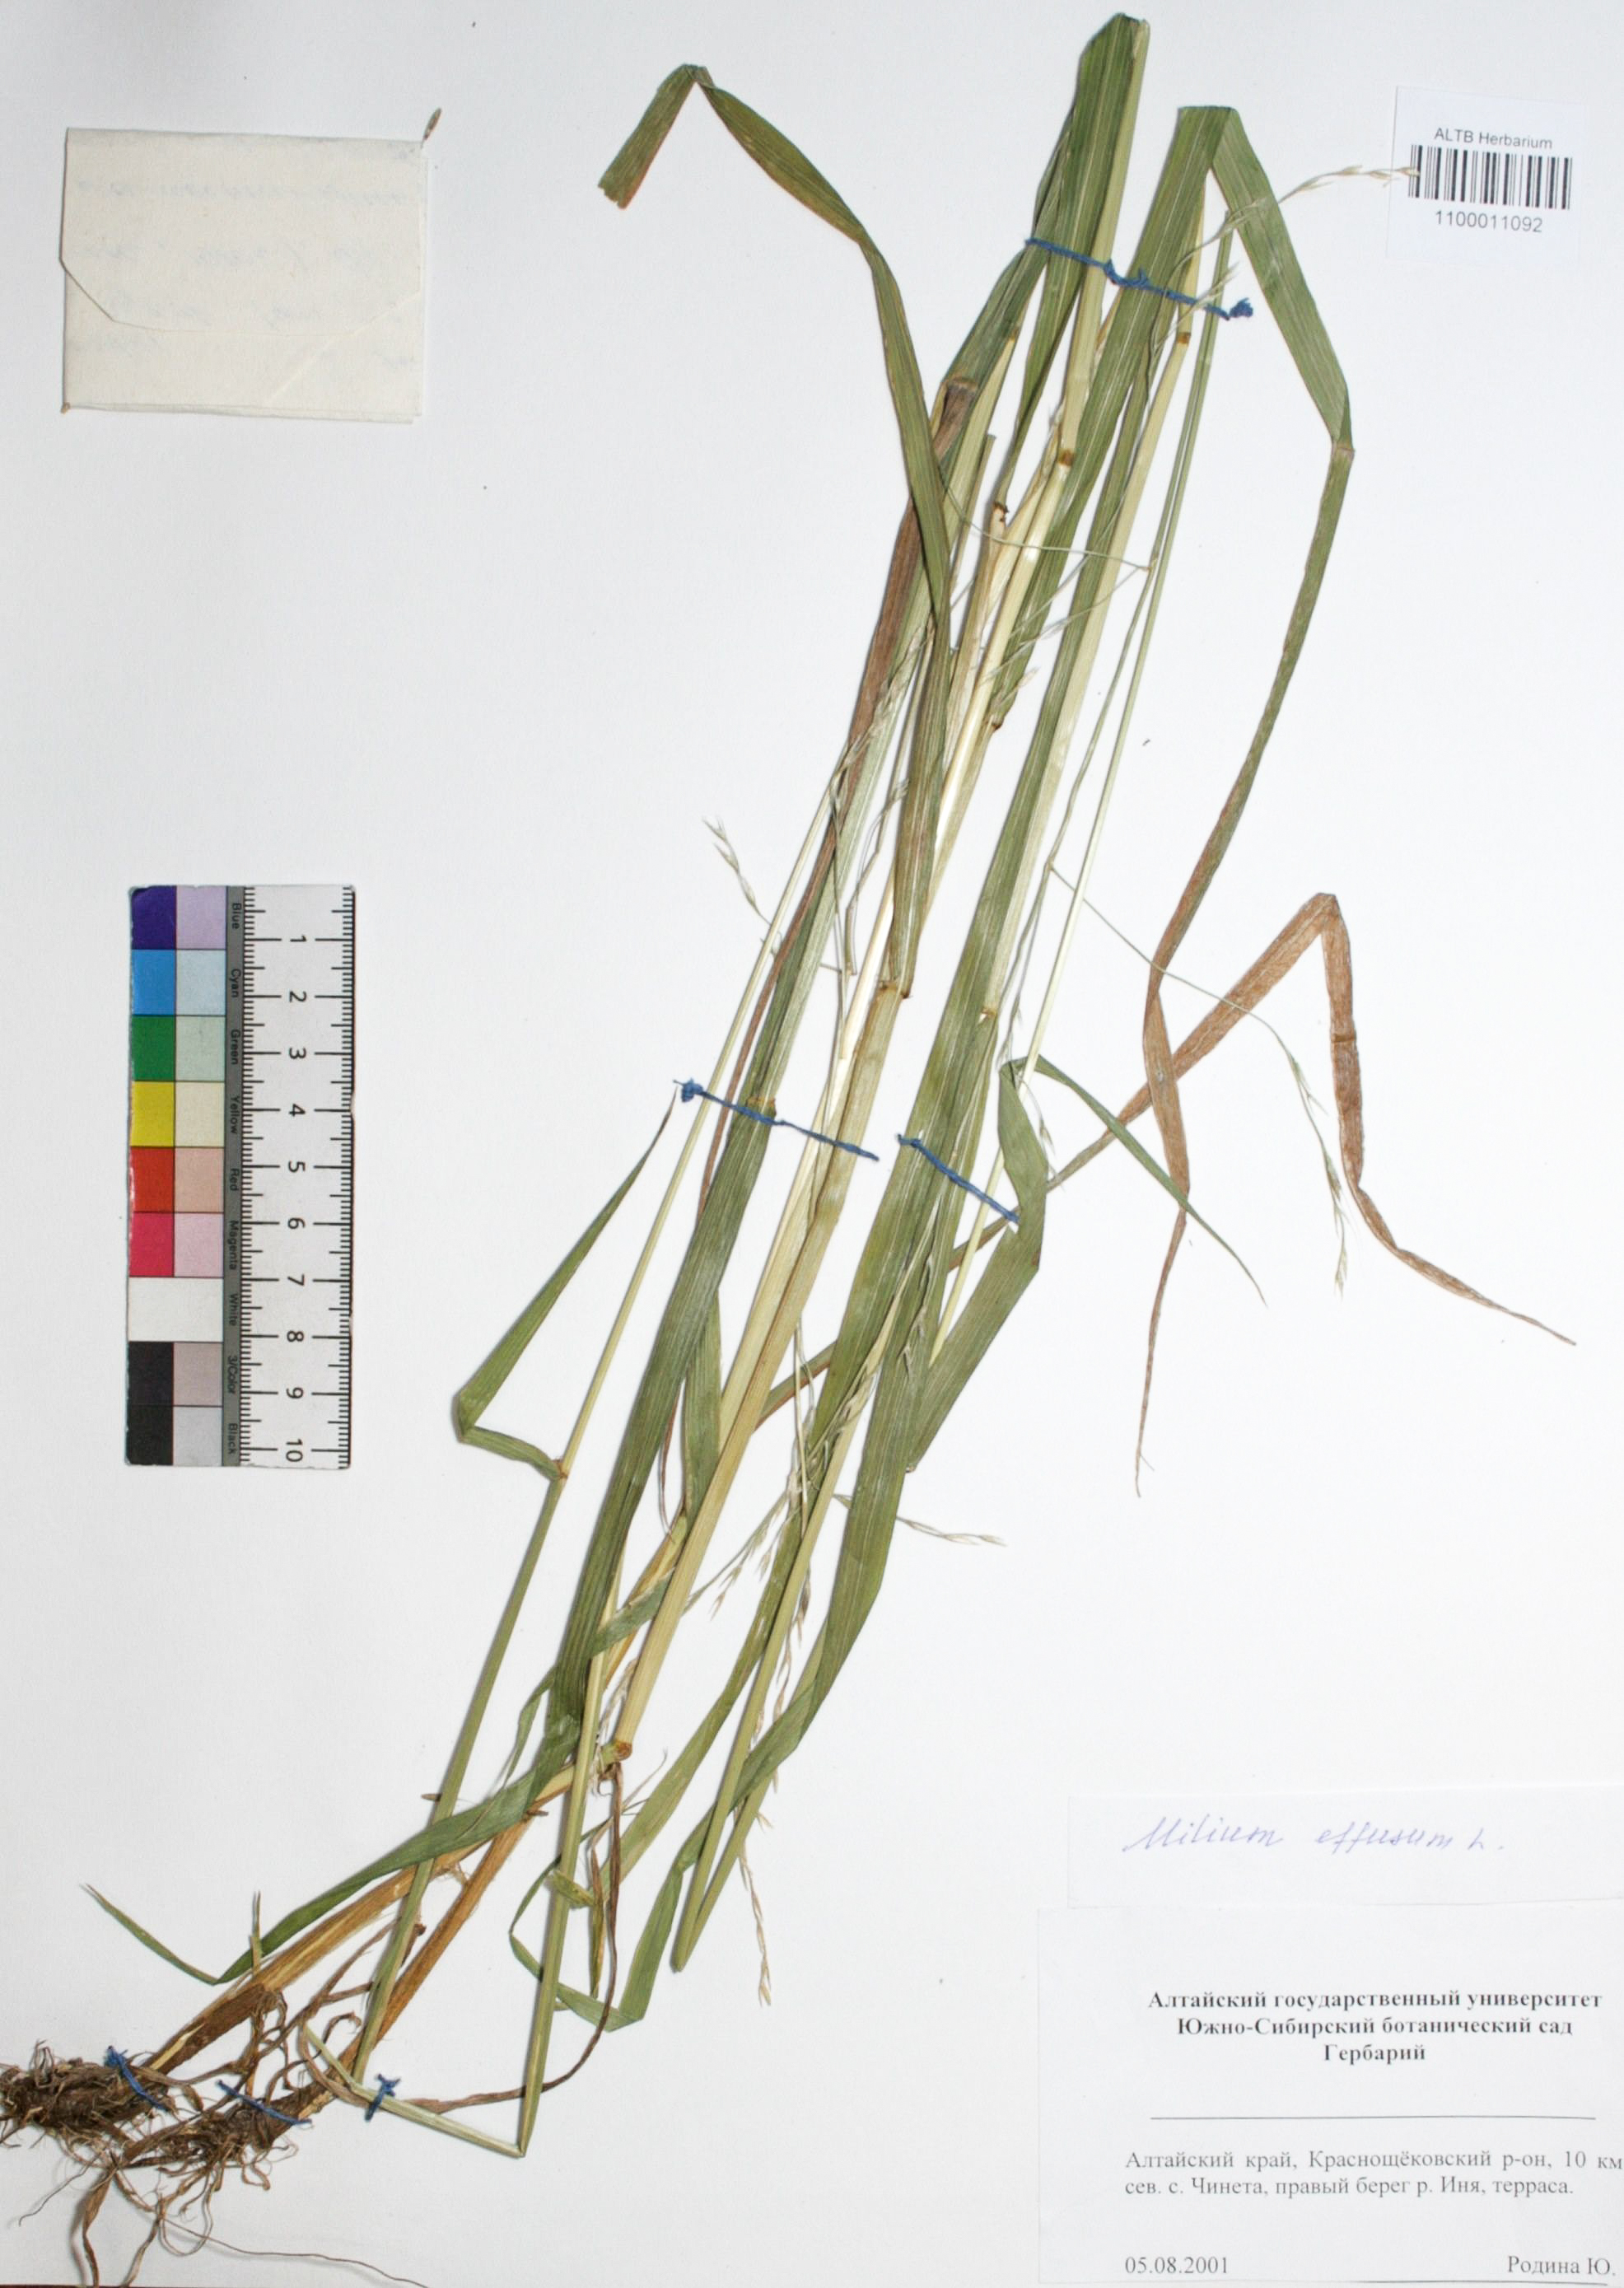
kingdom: Plantae
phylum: Tracheophyta
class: Liliopsida
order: Poales
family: Poaceae
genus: Milium
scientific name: Milium effusum
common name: Wood millet
